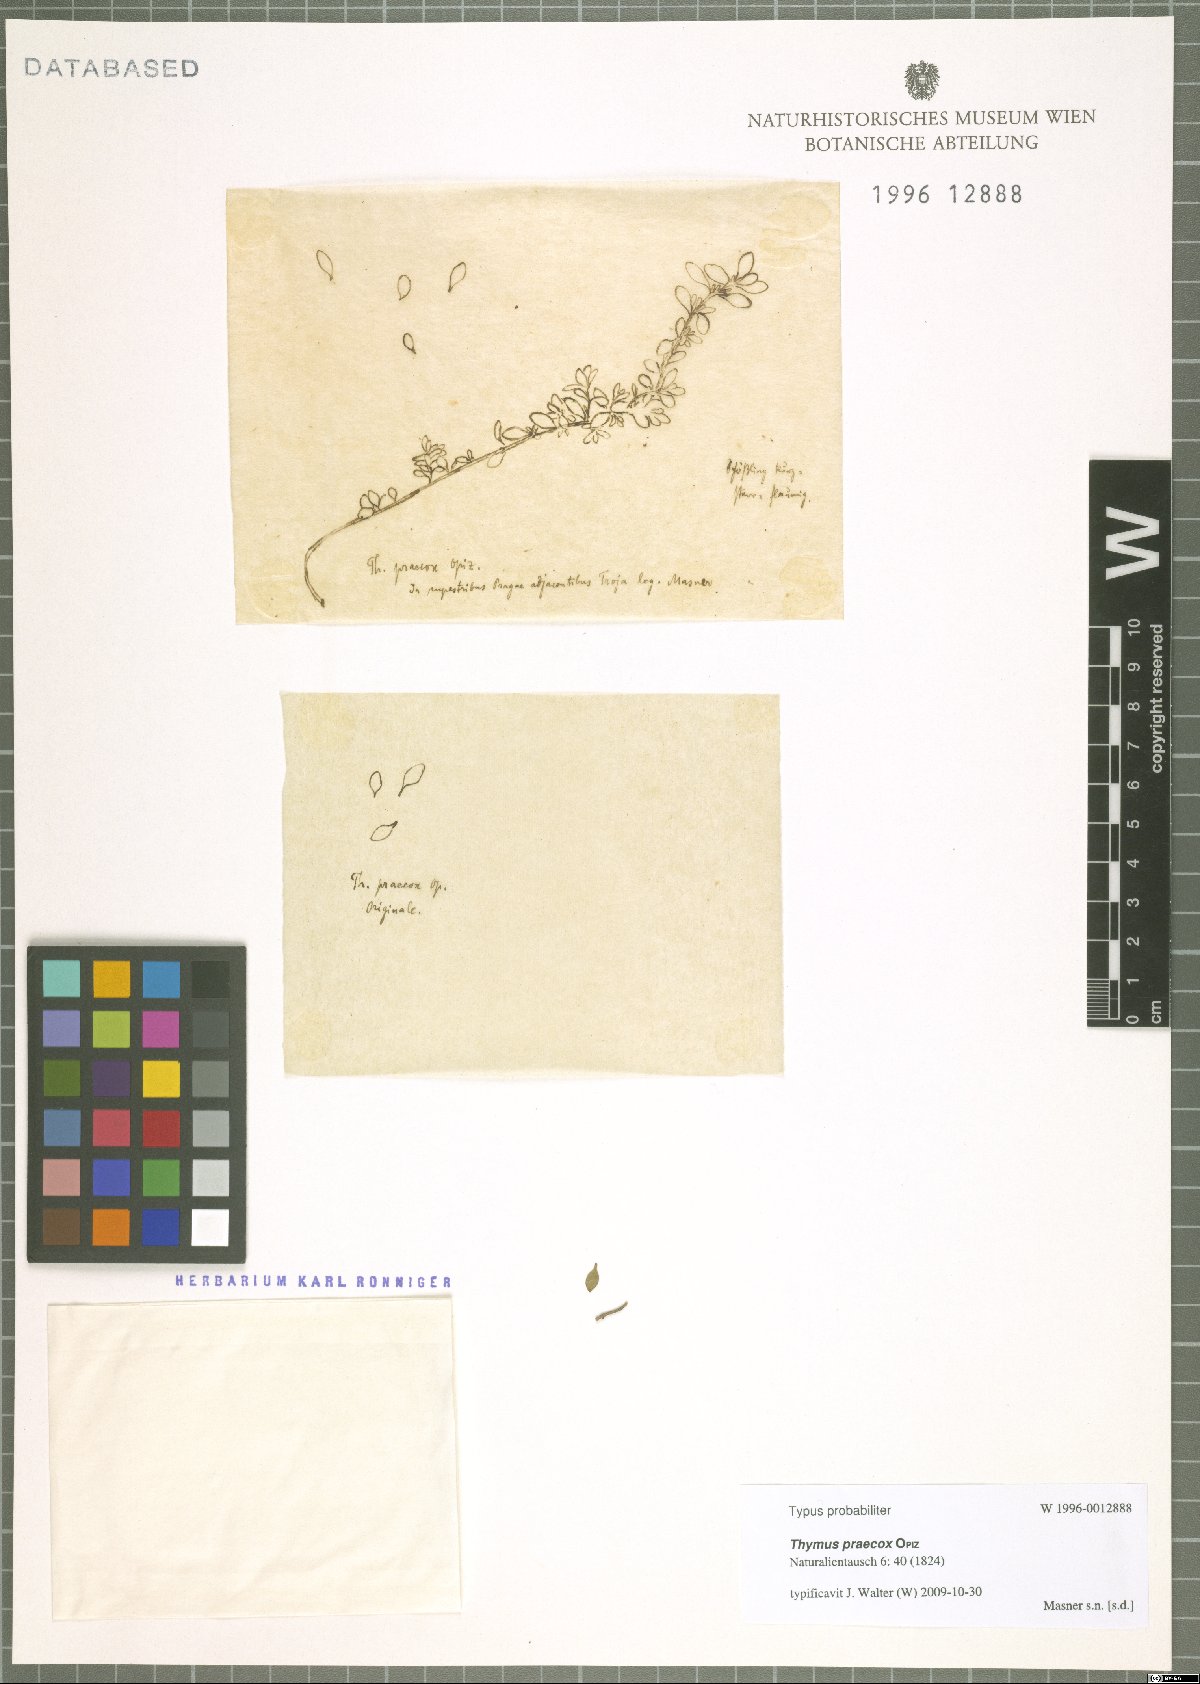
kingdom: Plantae
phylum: Tracheophyta
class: Magnoliopsida
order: Lamiales
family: Lamiaceae
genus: Thymus
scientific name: Thymus praecox
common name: Wild thyme
